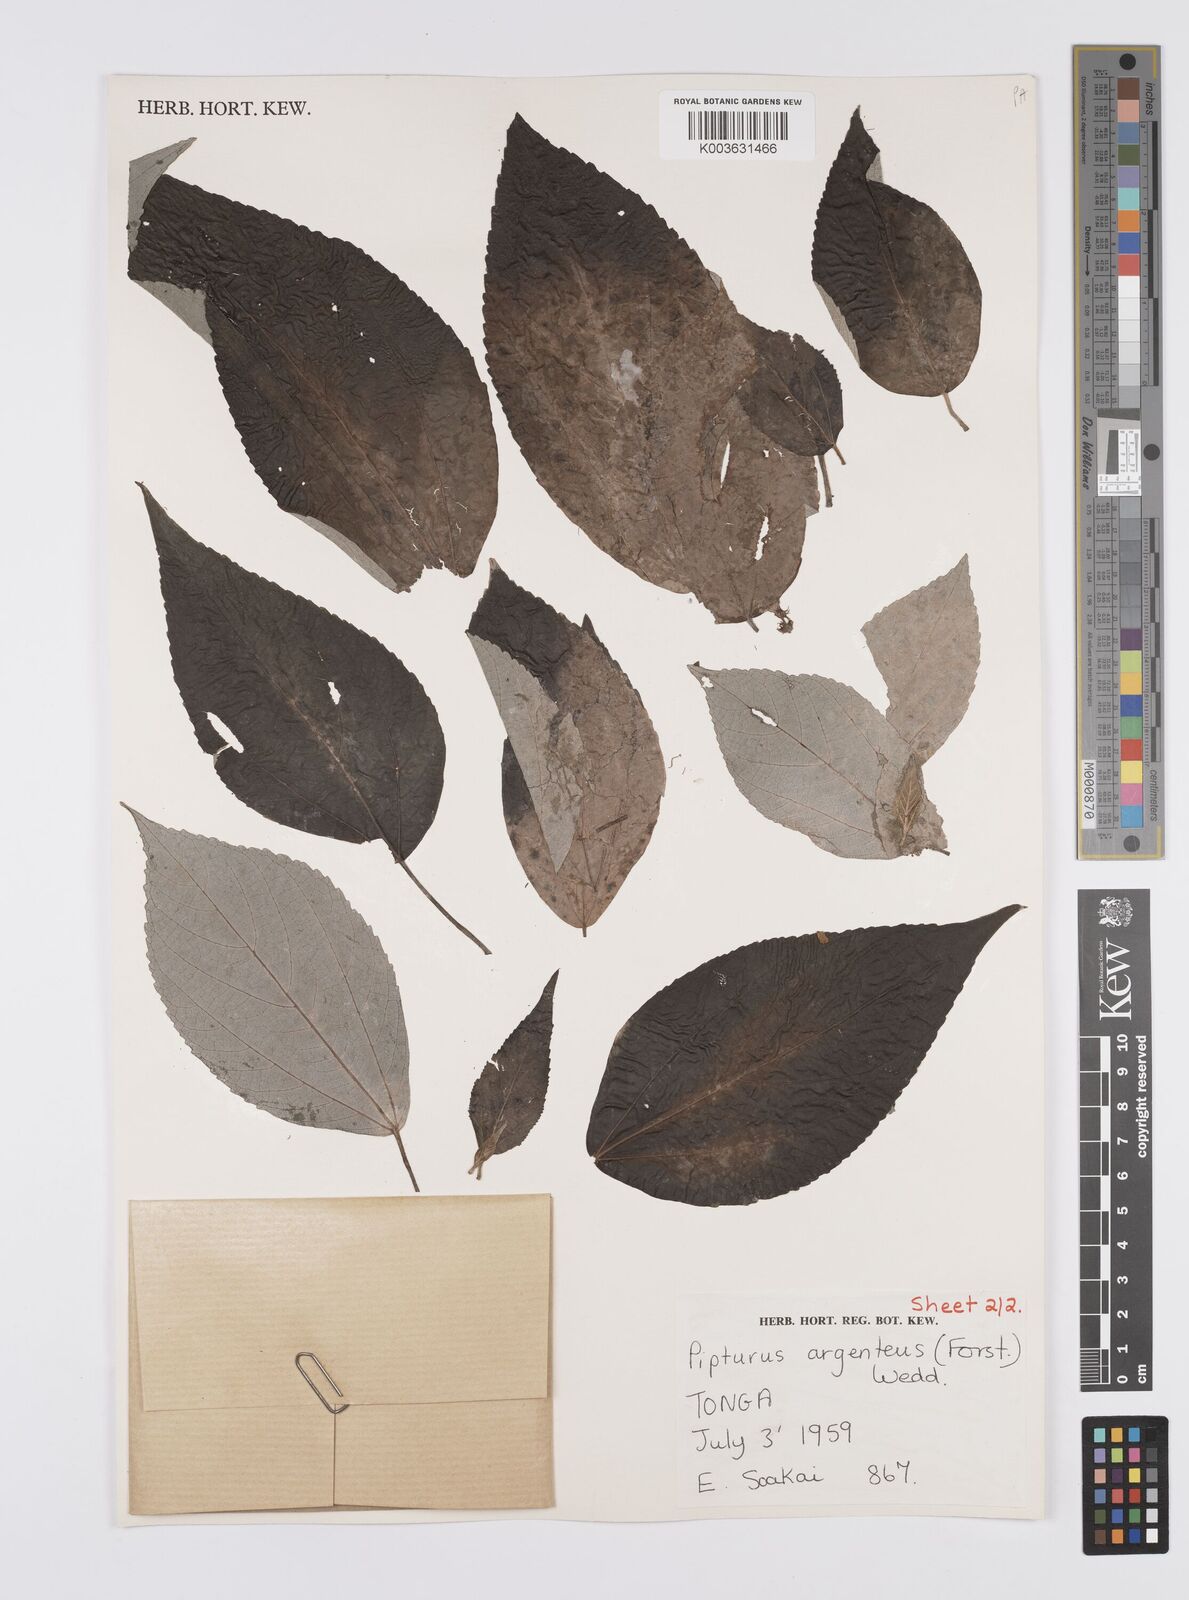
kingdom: Plantae
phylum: Tracheophyta
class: Magnoliopsida
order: Rosales
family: Urticaceae
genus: Pipturus
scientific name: Pipturus argenteus
